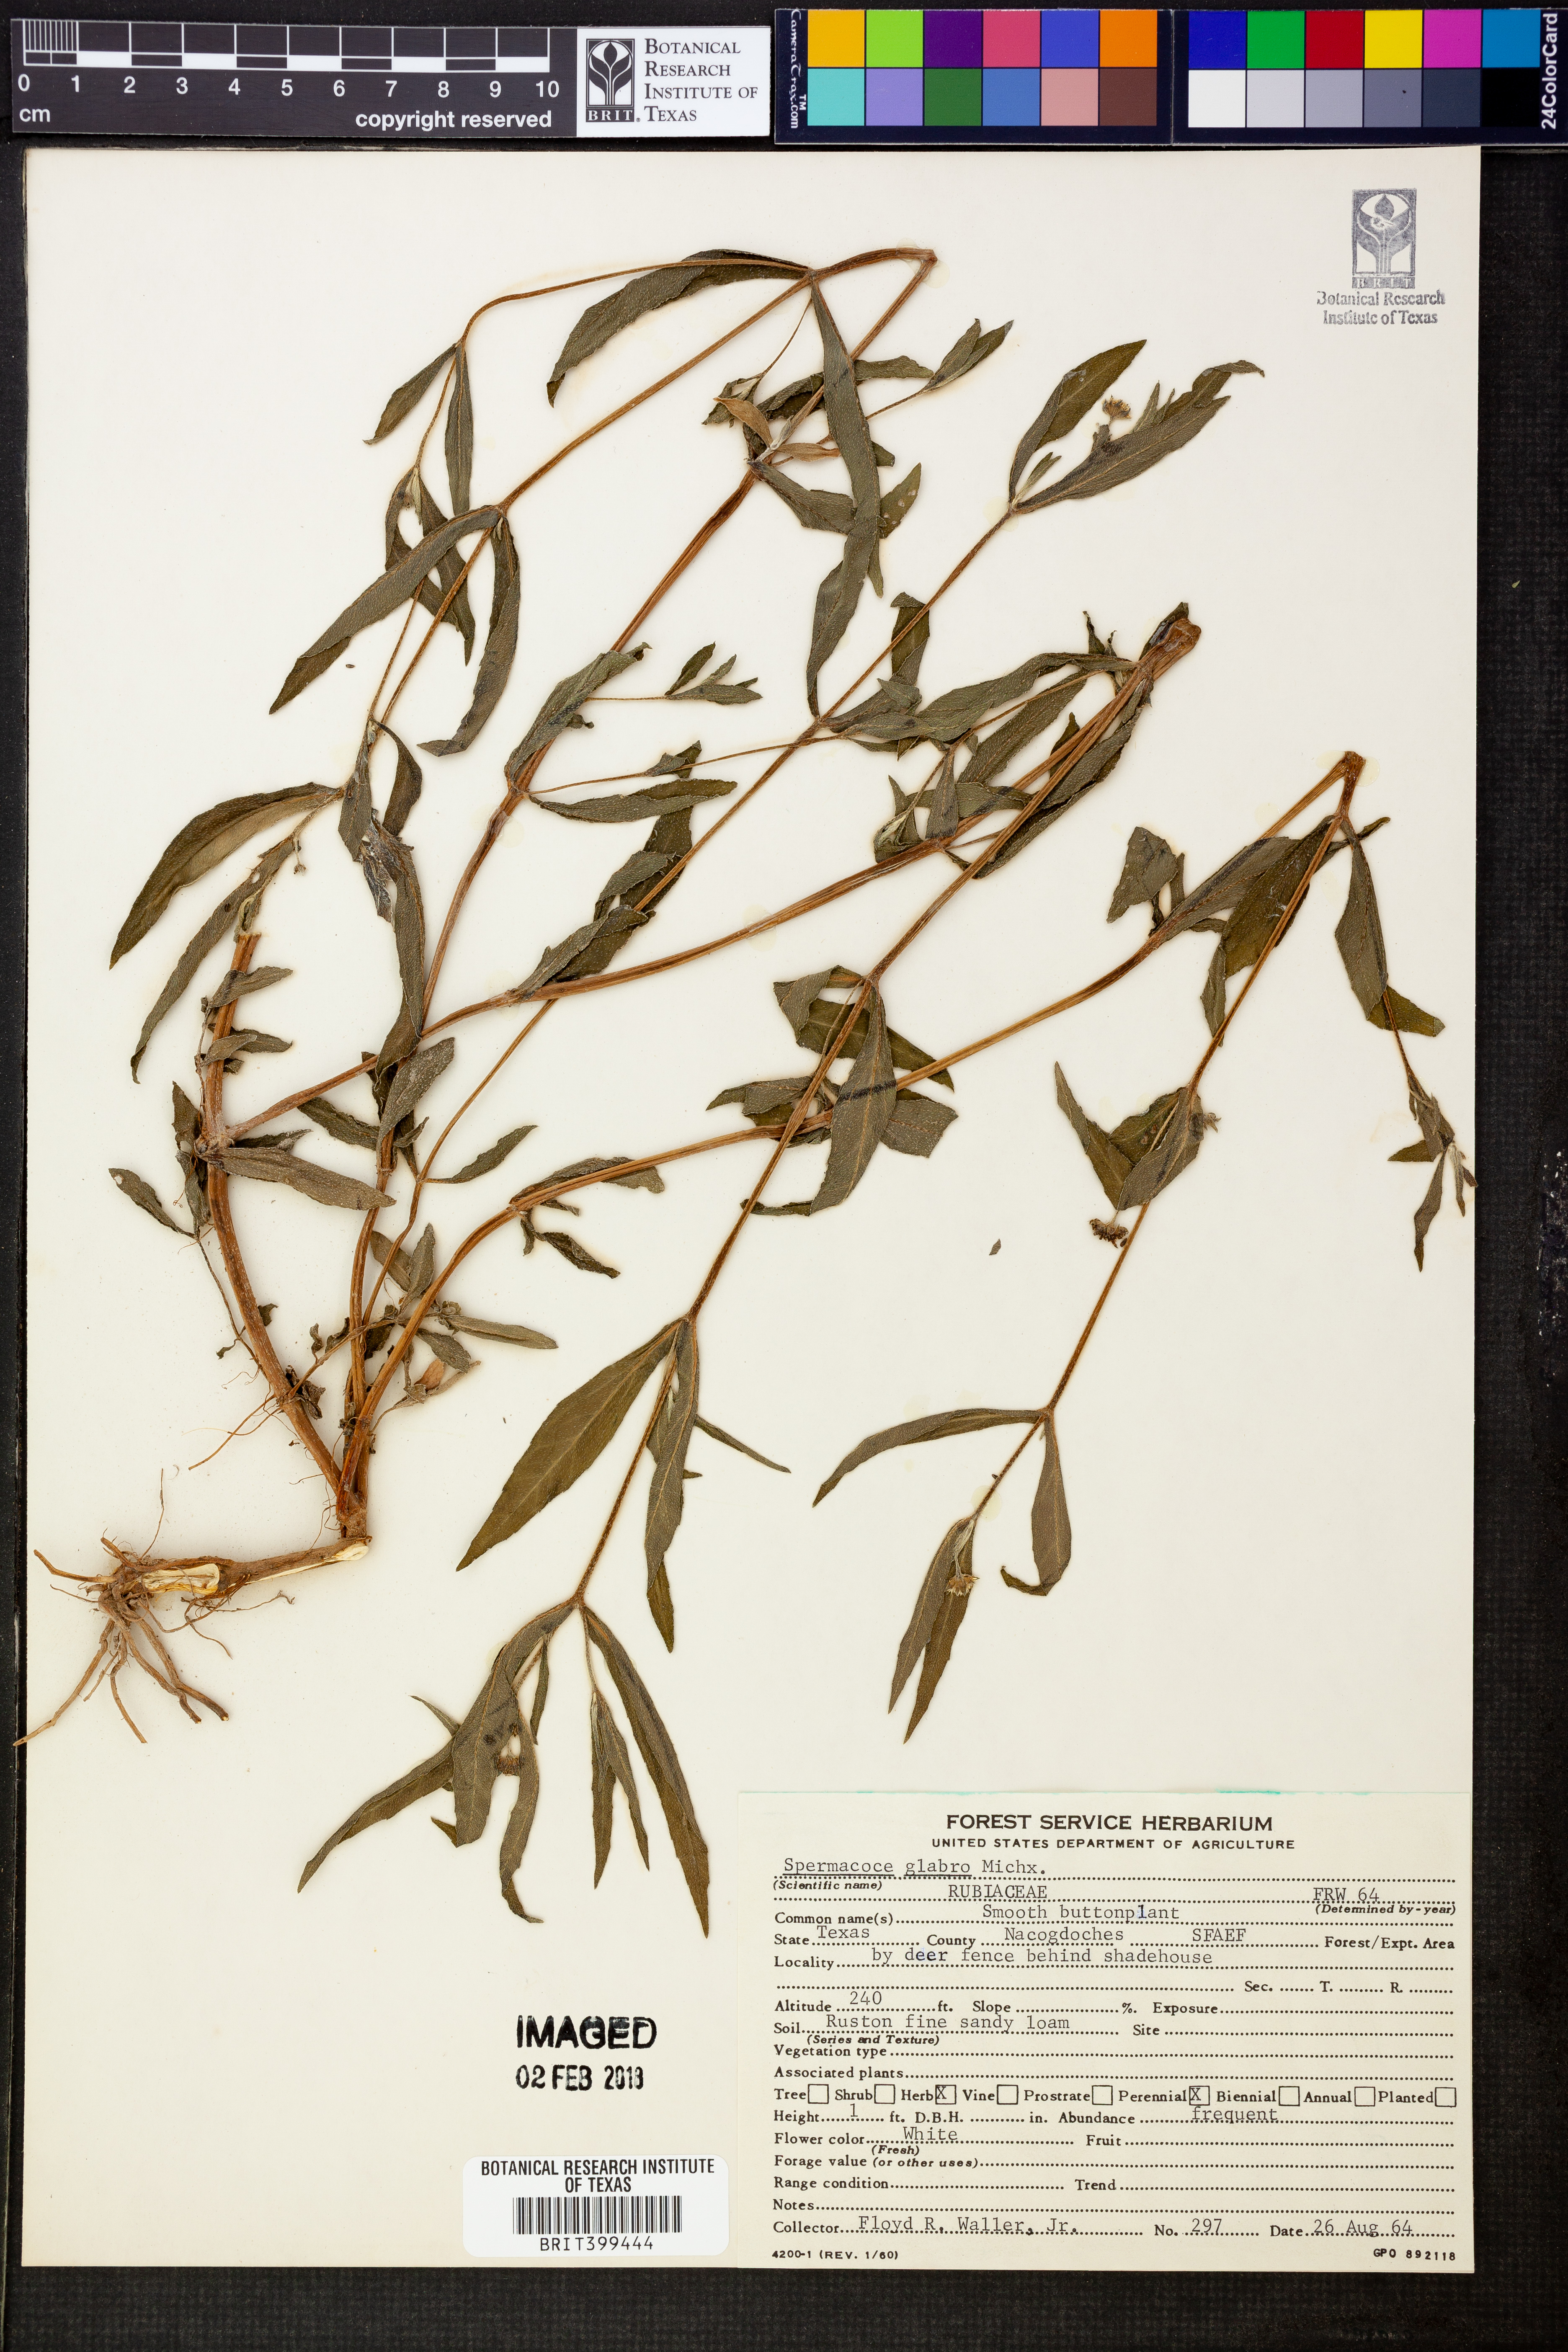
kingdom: Plantae
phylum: Tracheophyta
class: Magnoliopsida
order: Gentianales
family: Rubiaceae
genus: Spermacoce
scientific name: Spermacoce glabra
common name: Smooth buttonweed
